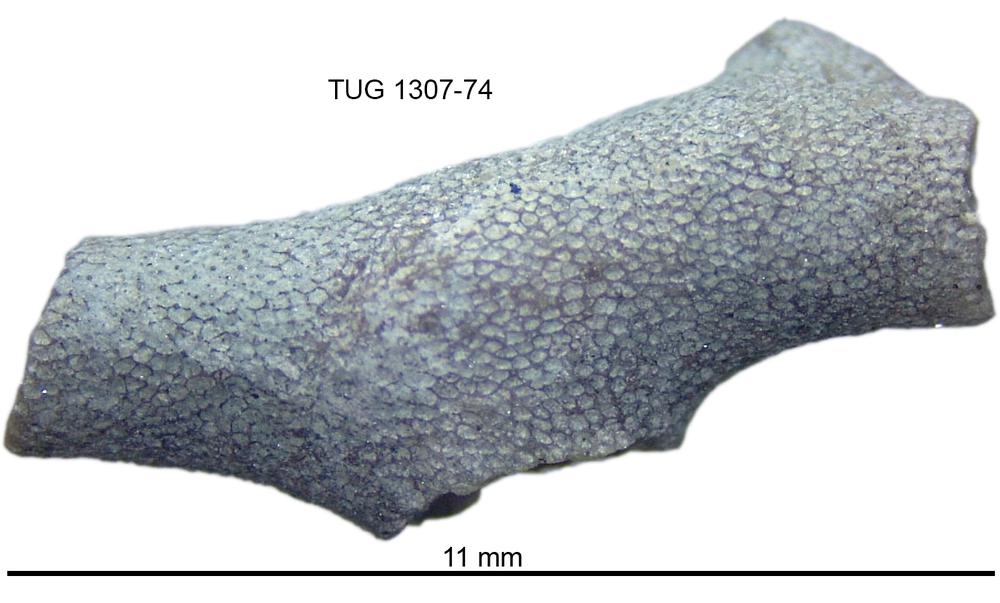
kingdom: Animalia
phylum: Bryozoa
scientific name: Bryozoa
